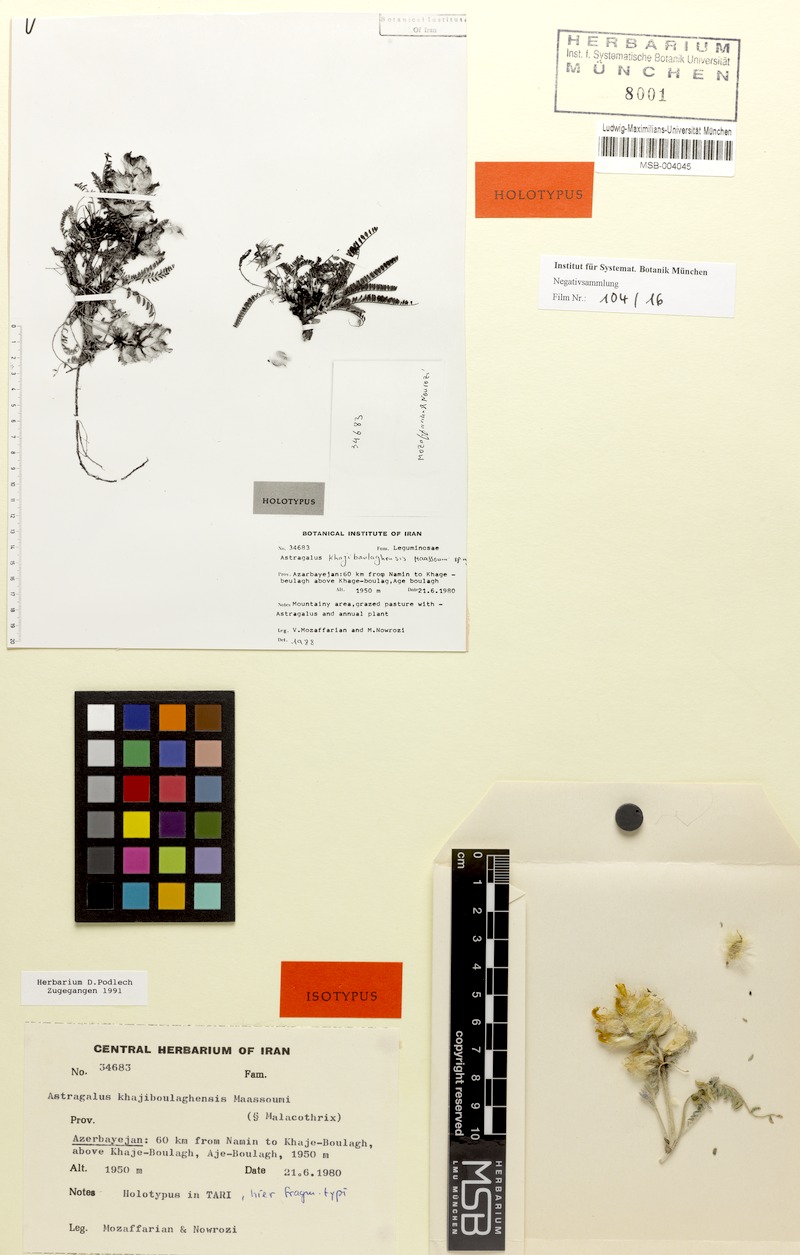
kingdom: Plantae
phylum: Tracheophyta
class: Magnoliopsida
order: Fabales
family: Fabaceae
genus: Astragalus
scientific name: Astragalus khajiboulaghensis
